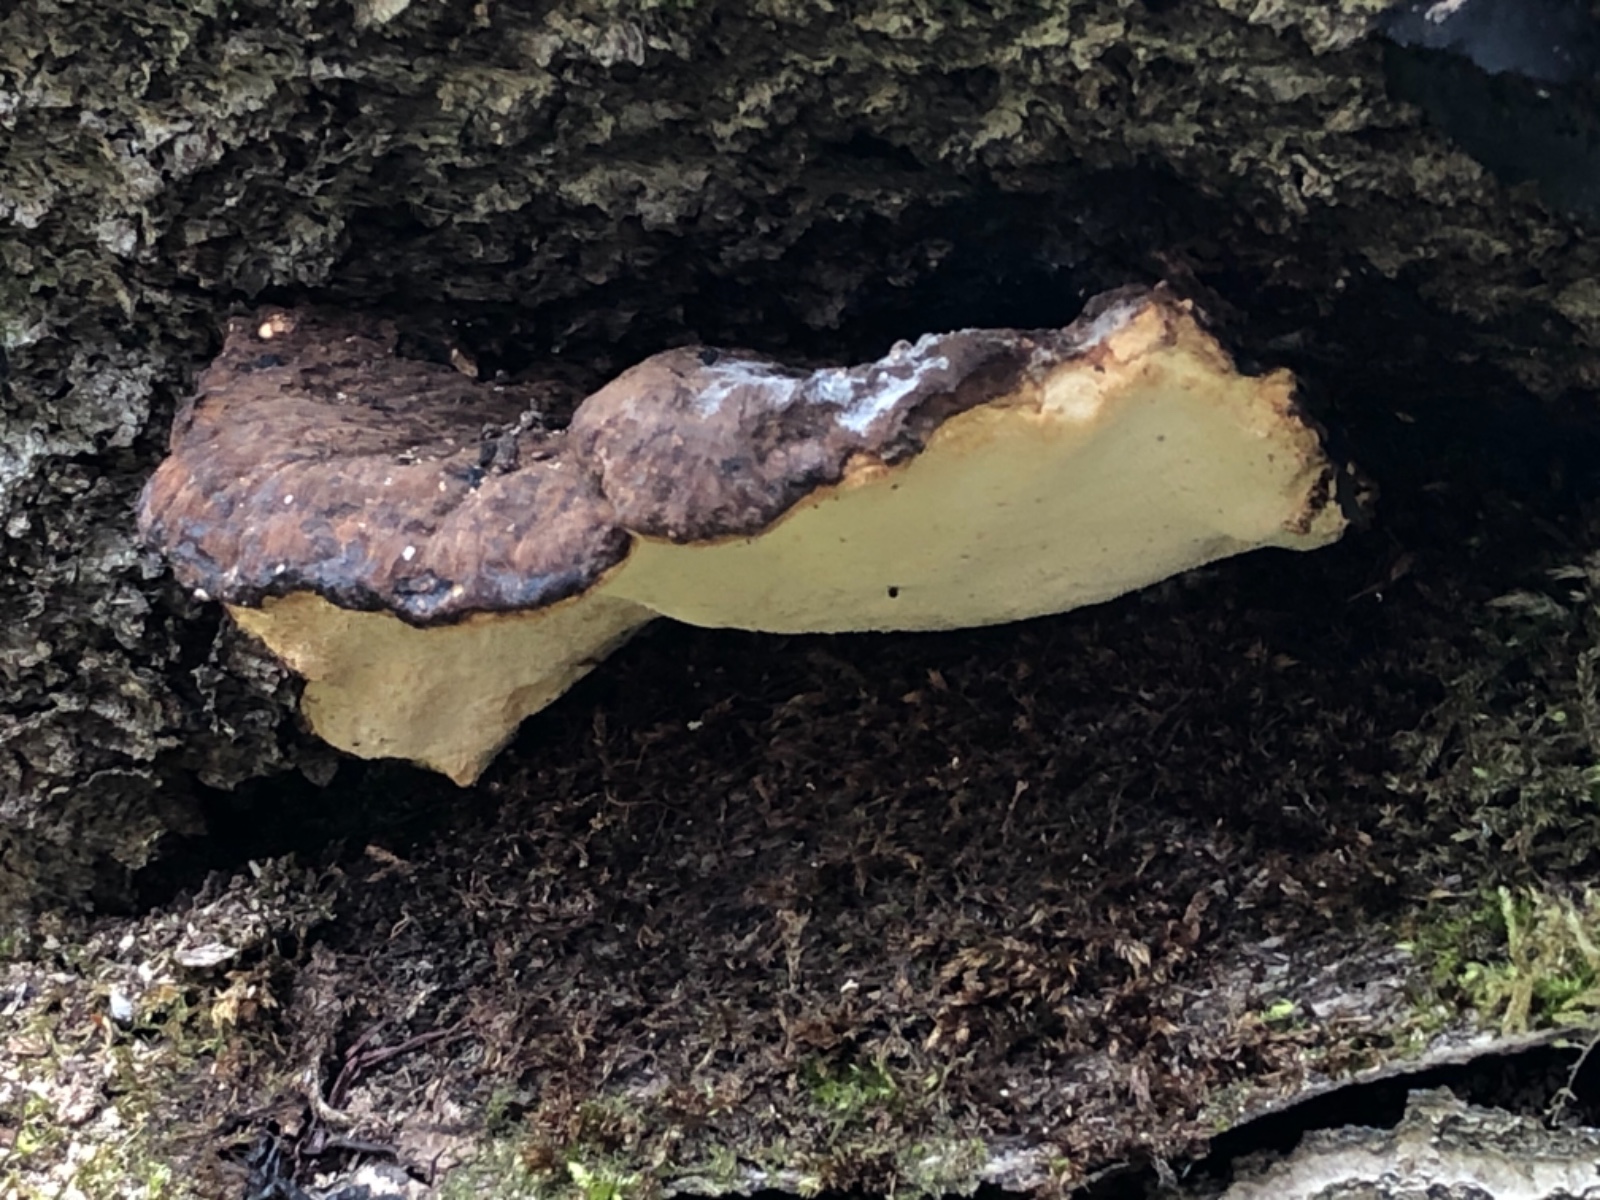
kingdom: Fungi
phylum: Basidiomycota
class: Agaricomycetes
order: Polyporales
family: Ischnodermataceae
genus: Ischnoderma
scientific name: Ischnoderma resinosum
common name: løv-tjæreporesvamp
